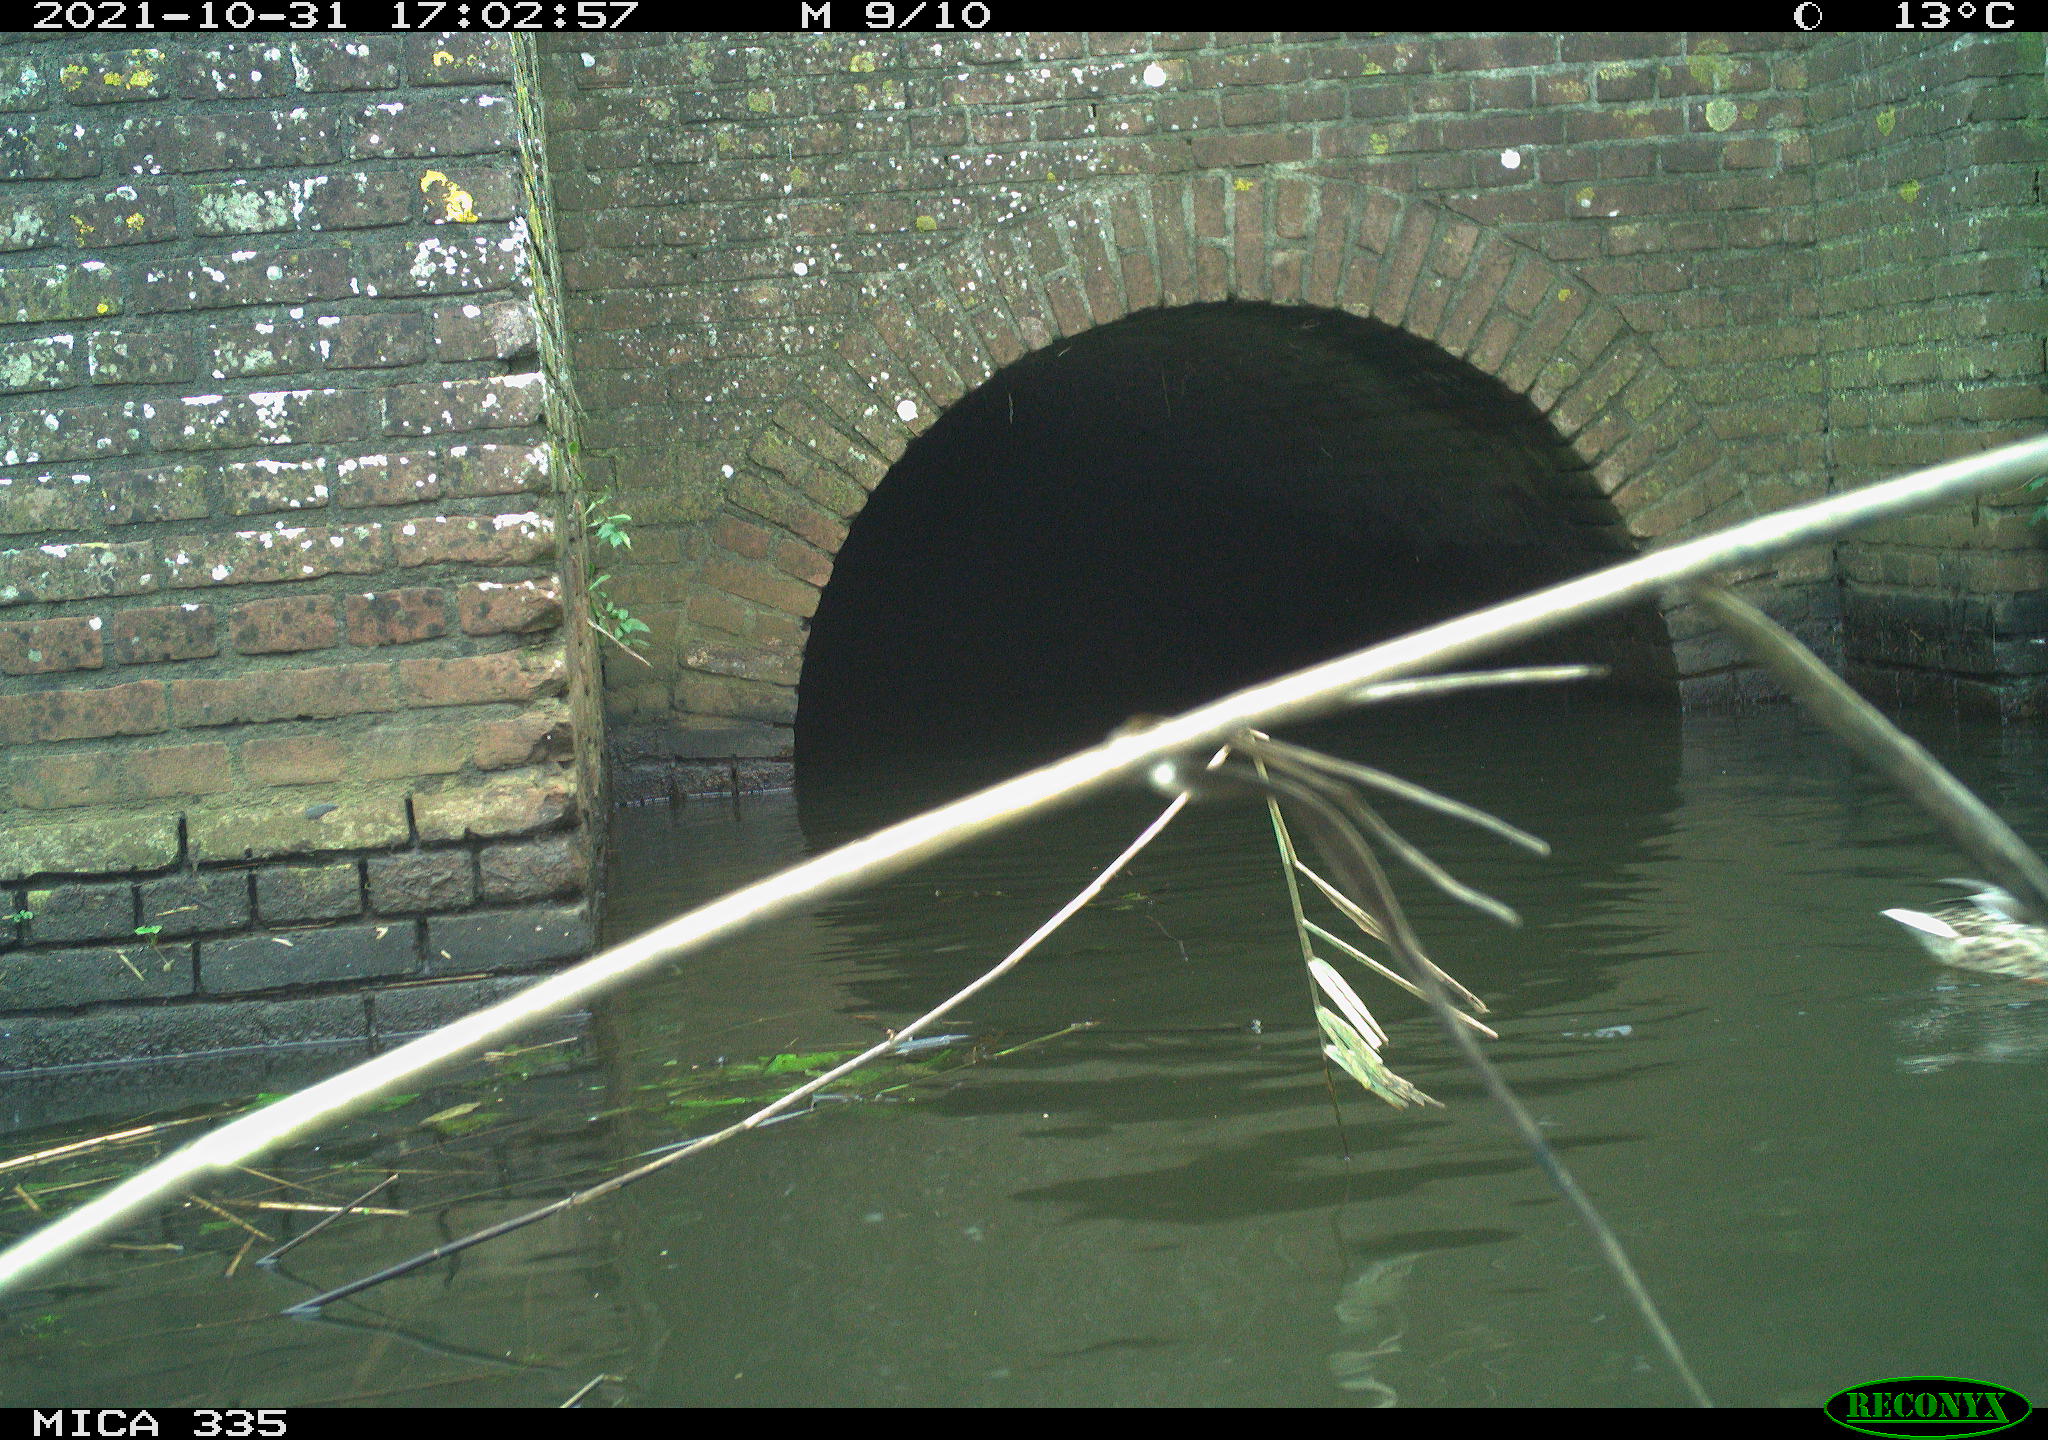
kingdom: Animalia
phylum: Chordata
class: Aves
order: Anseriformes
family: Anatidae
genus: Anas
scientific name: Anas platyrhynchos
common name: Mallard
